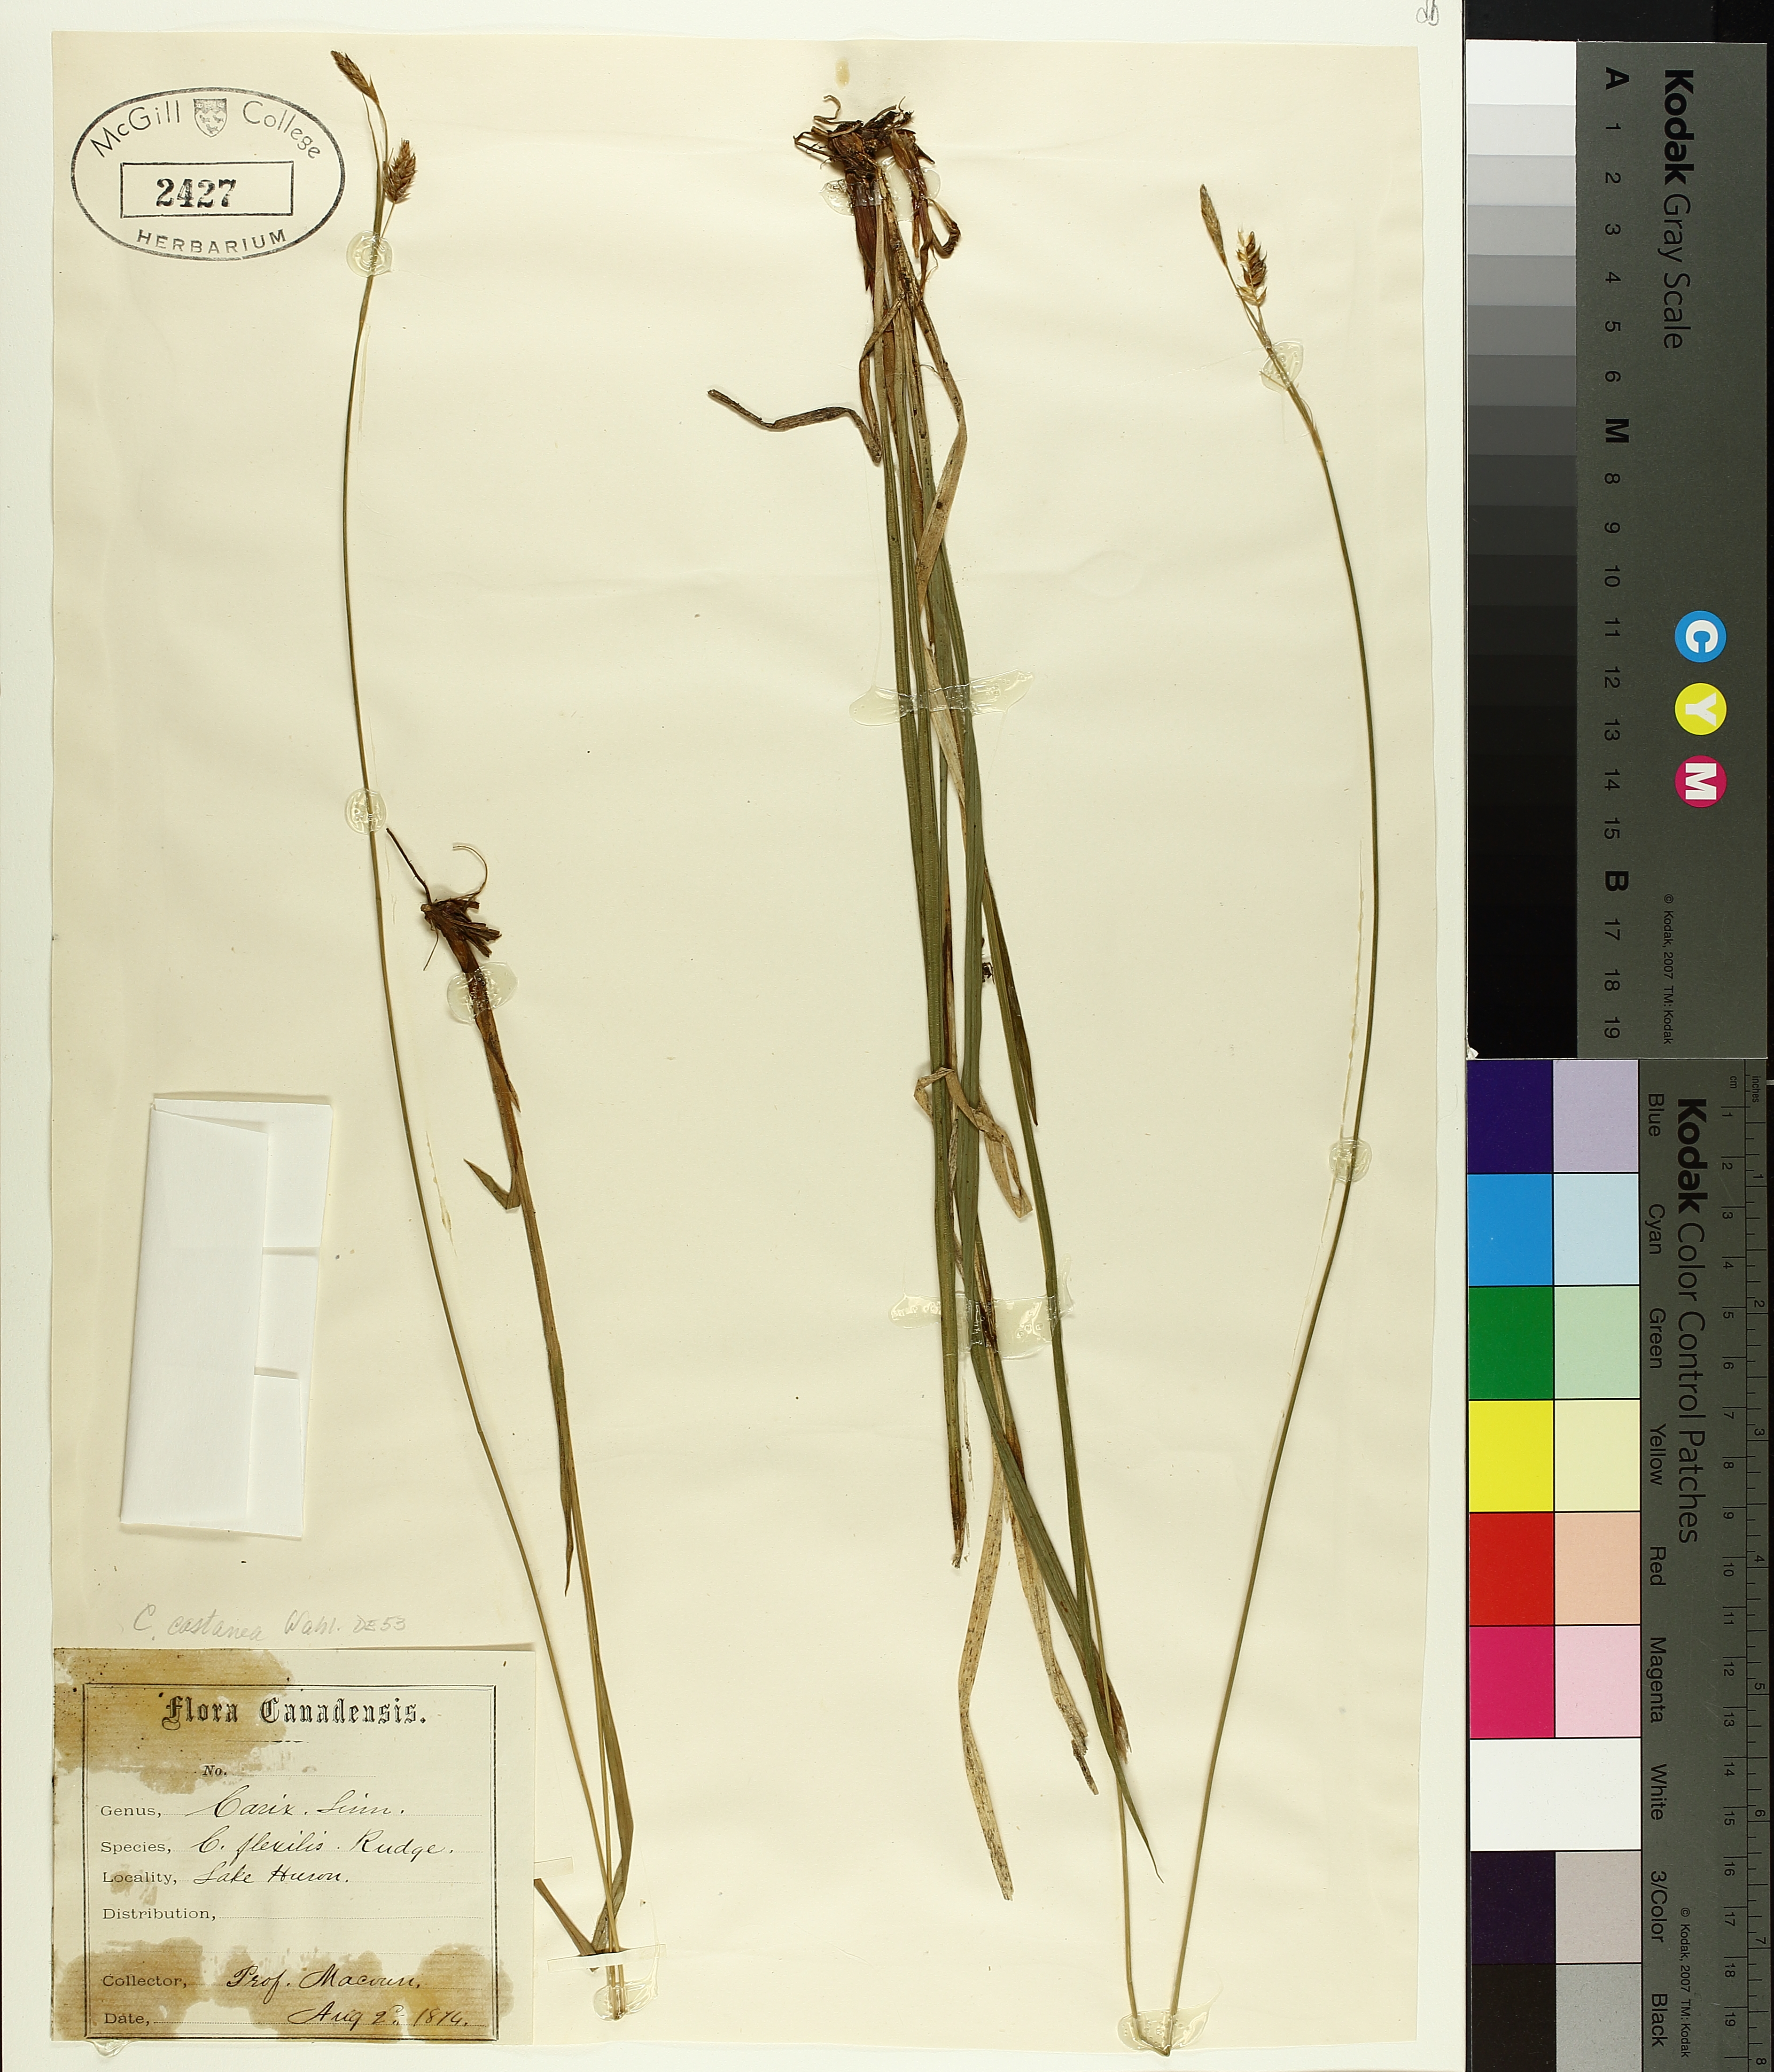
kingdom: Plantae
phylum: Tracheophyta
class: Liliopsida
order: Poales
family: Cyperaceae
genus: Carex
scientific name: Carex castanea
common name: Chestnut sedge
